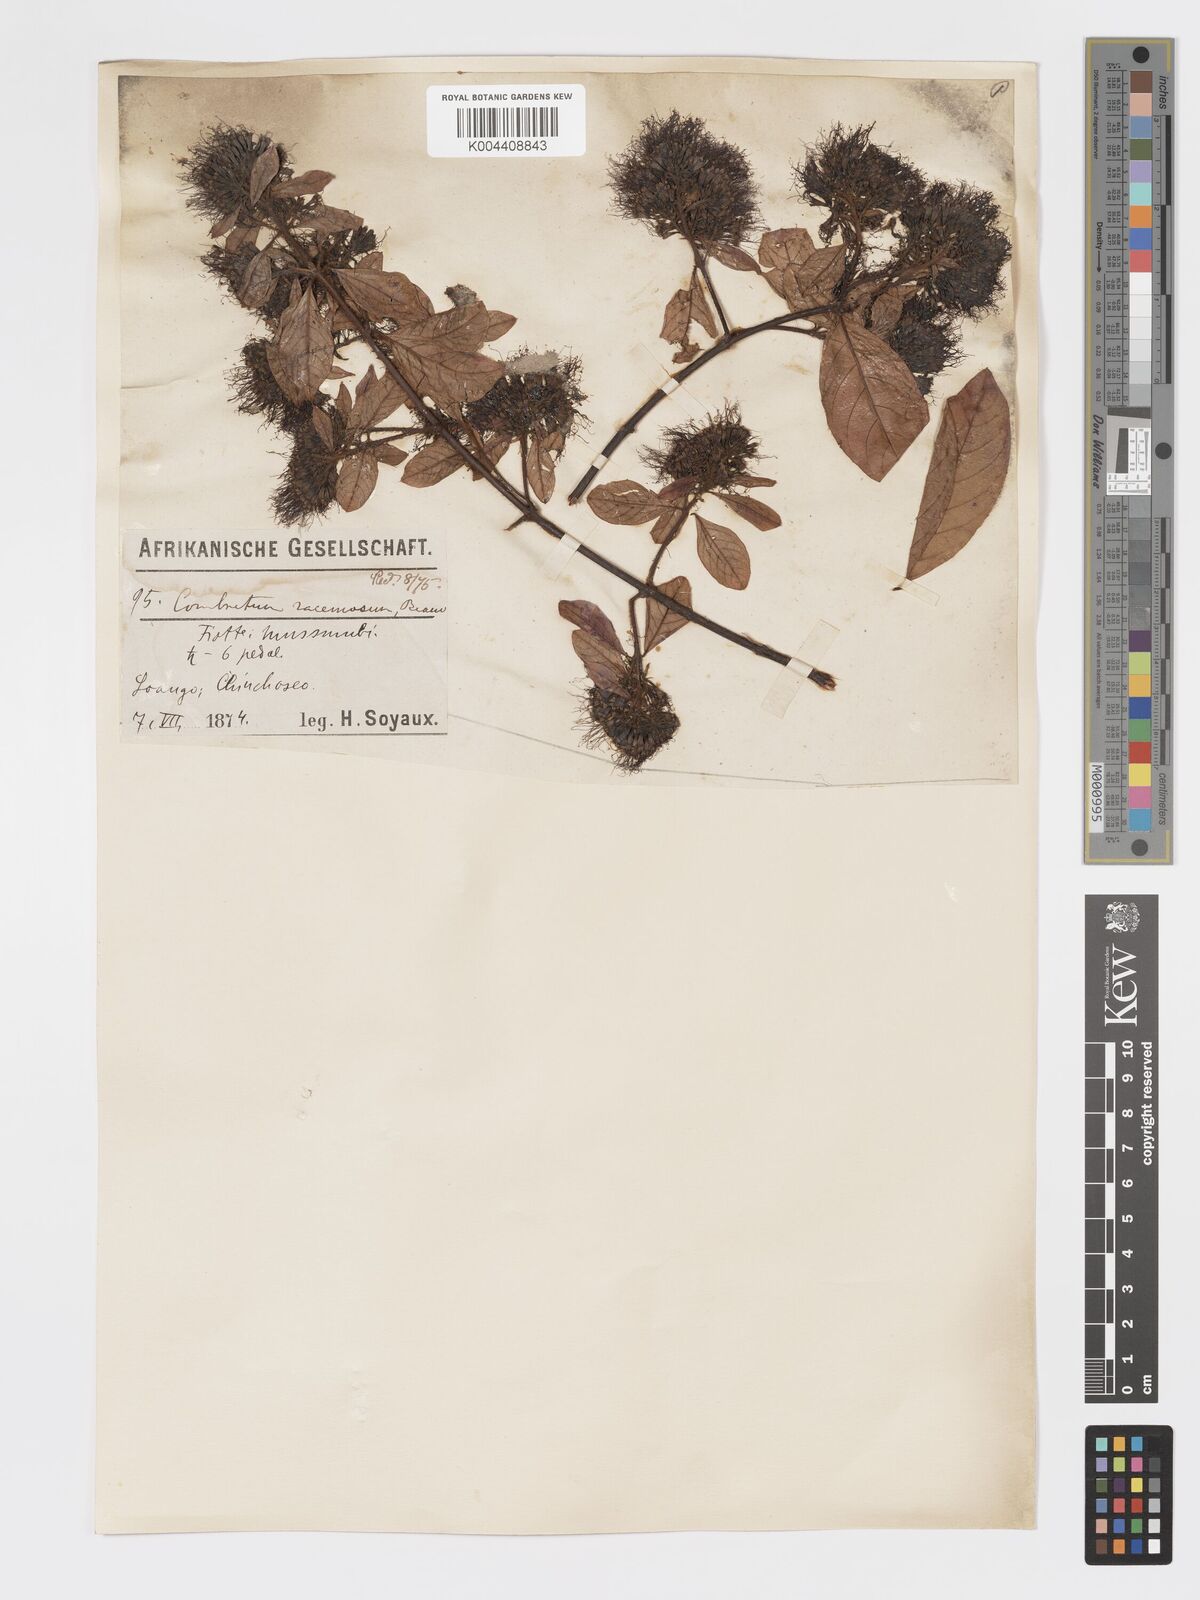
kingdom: Plantae
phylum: Tracheophyta
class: Magnoliopsida
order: Myrtales
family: Combretaceae
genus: Combretum
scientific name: Combretum racemosum
